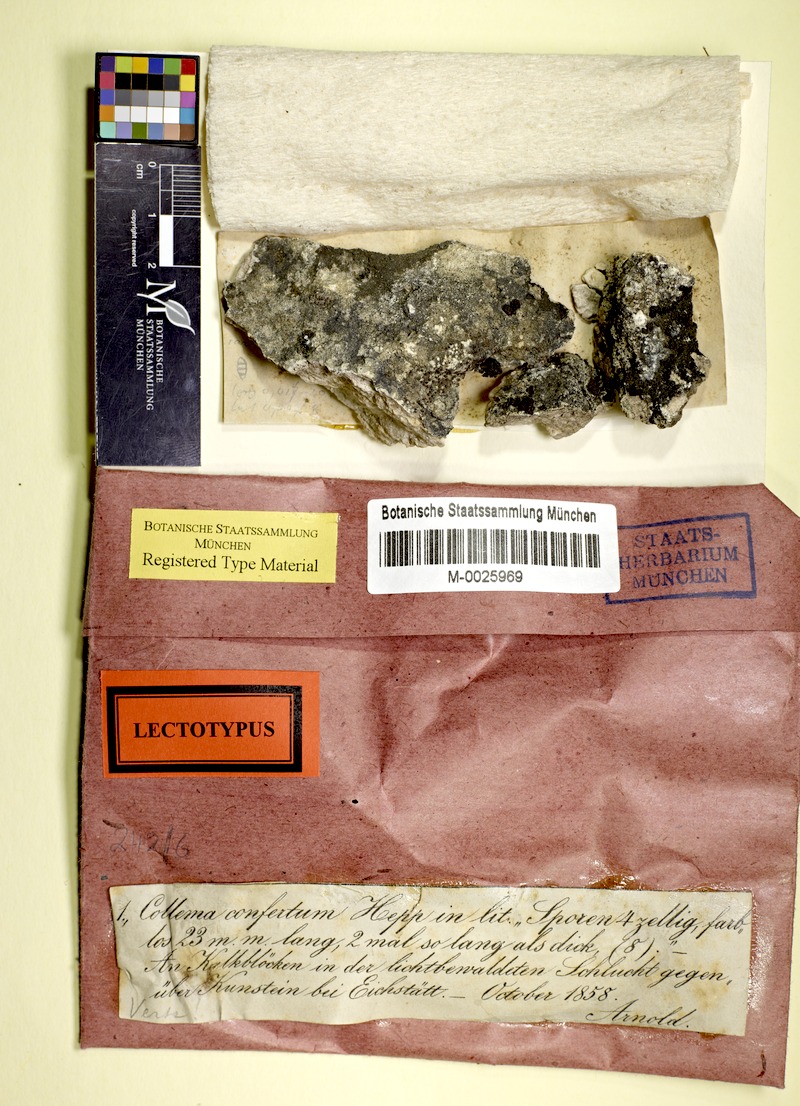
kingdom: Fungi
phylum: Ascomycota
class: Lecanoromycetes
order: Peltigerales
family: Collemataceae
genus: Enchylium
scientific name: Enchylium confertum
